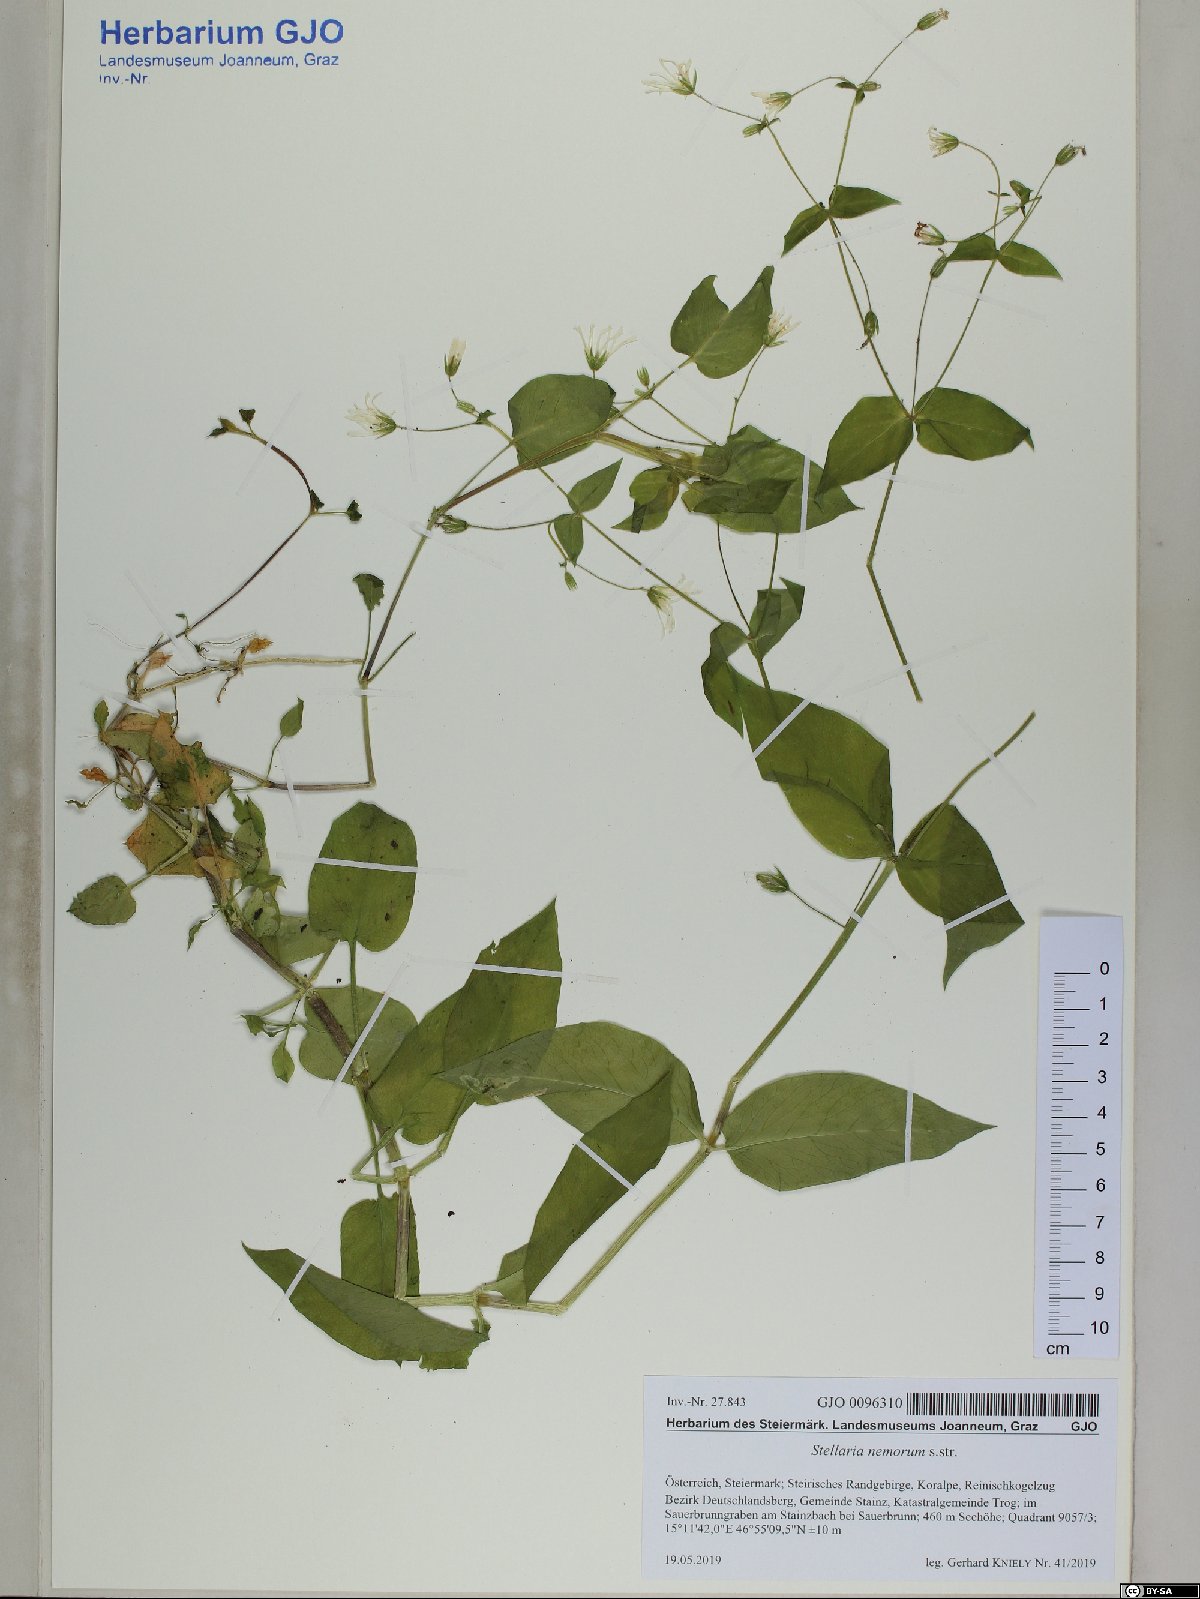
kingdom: Plantae
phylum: Tracheophyta
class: Magnoliopsida
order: Caryophyllales
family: Caryophyllaceae
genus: Stellaria
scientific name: Stellaria nemorum
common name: Wood stitchwort
